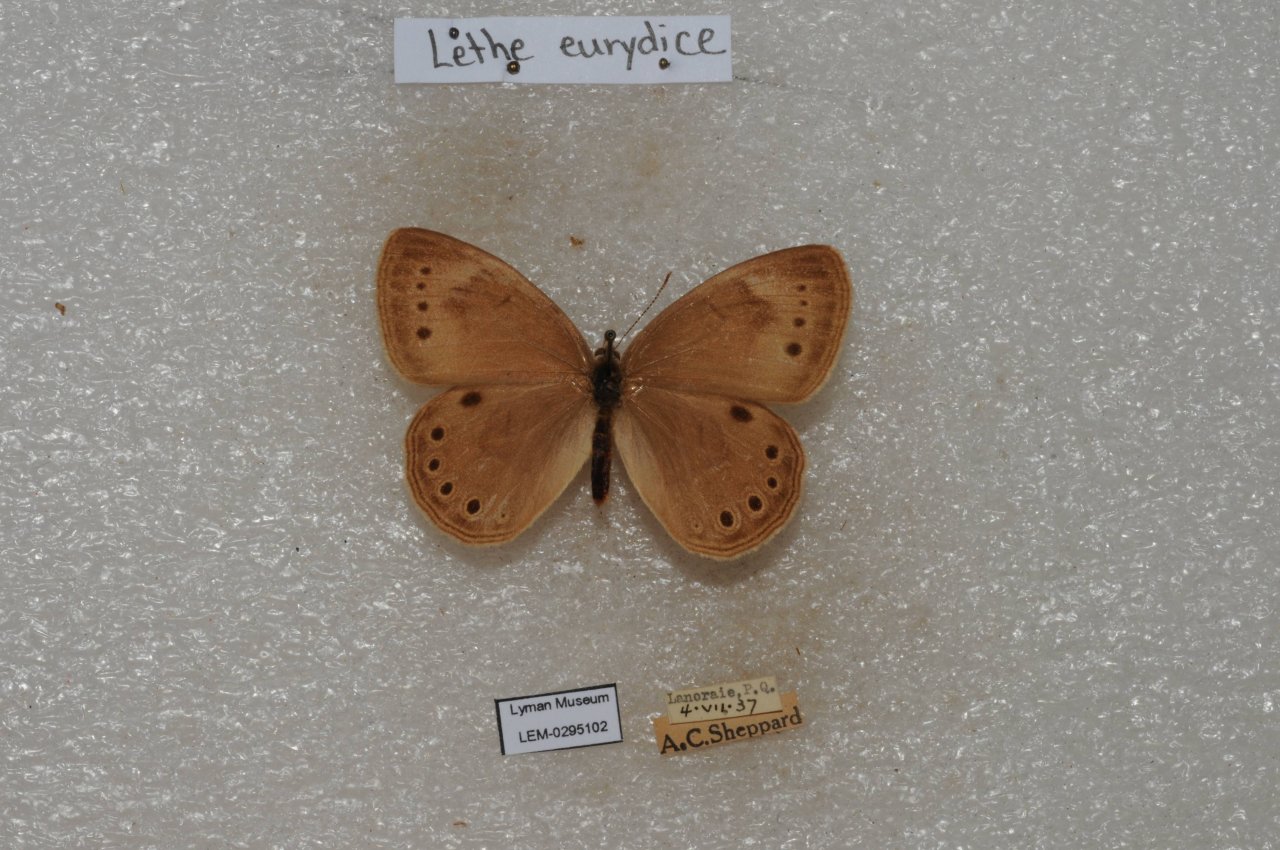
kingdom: Animalia
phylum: Arthropoda
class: Insecta
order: Lepidoptera
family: Nymphalidae
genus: Lethe
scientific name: Lethe eurydice
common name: Eyed Brown
